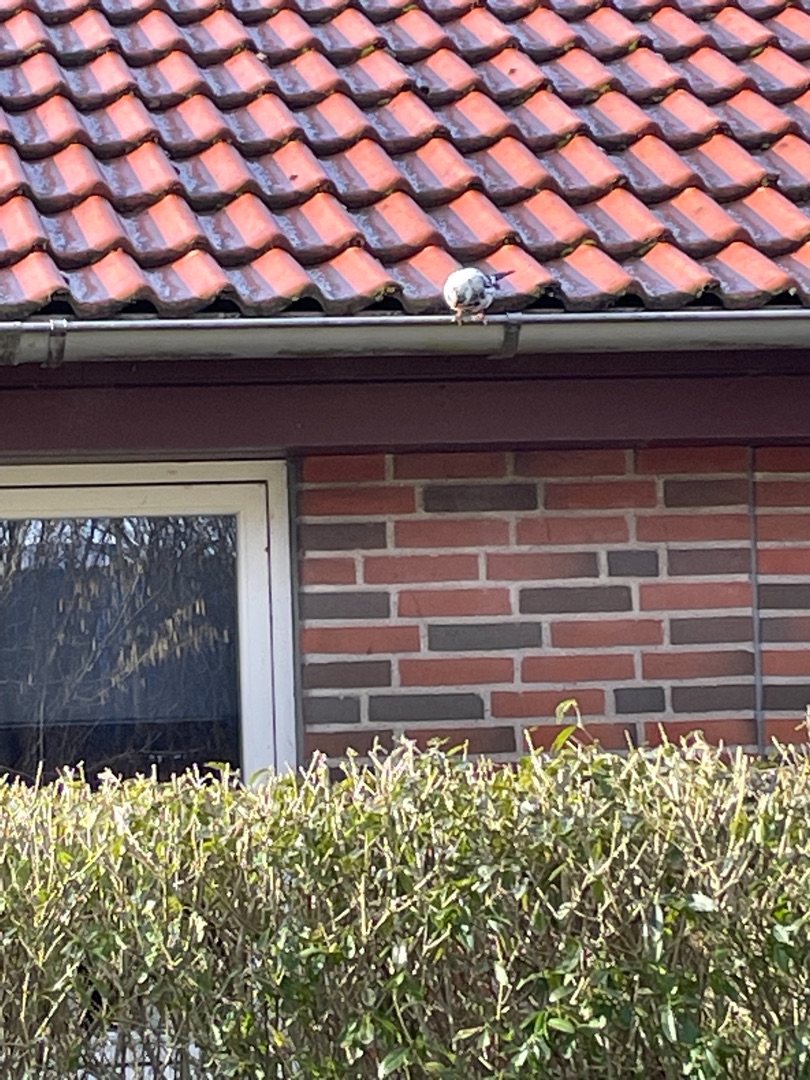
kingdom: Animalia
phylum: Chordata
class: Aves
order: Passeriformes
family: Turdidae
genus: Turdus
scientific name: Turdus merula
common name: Solsort
